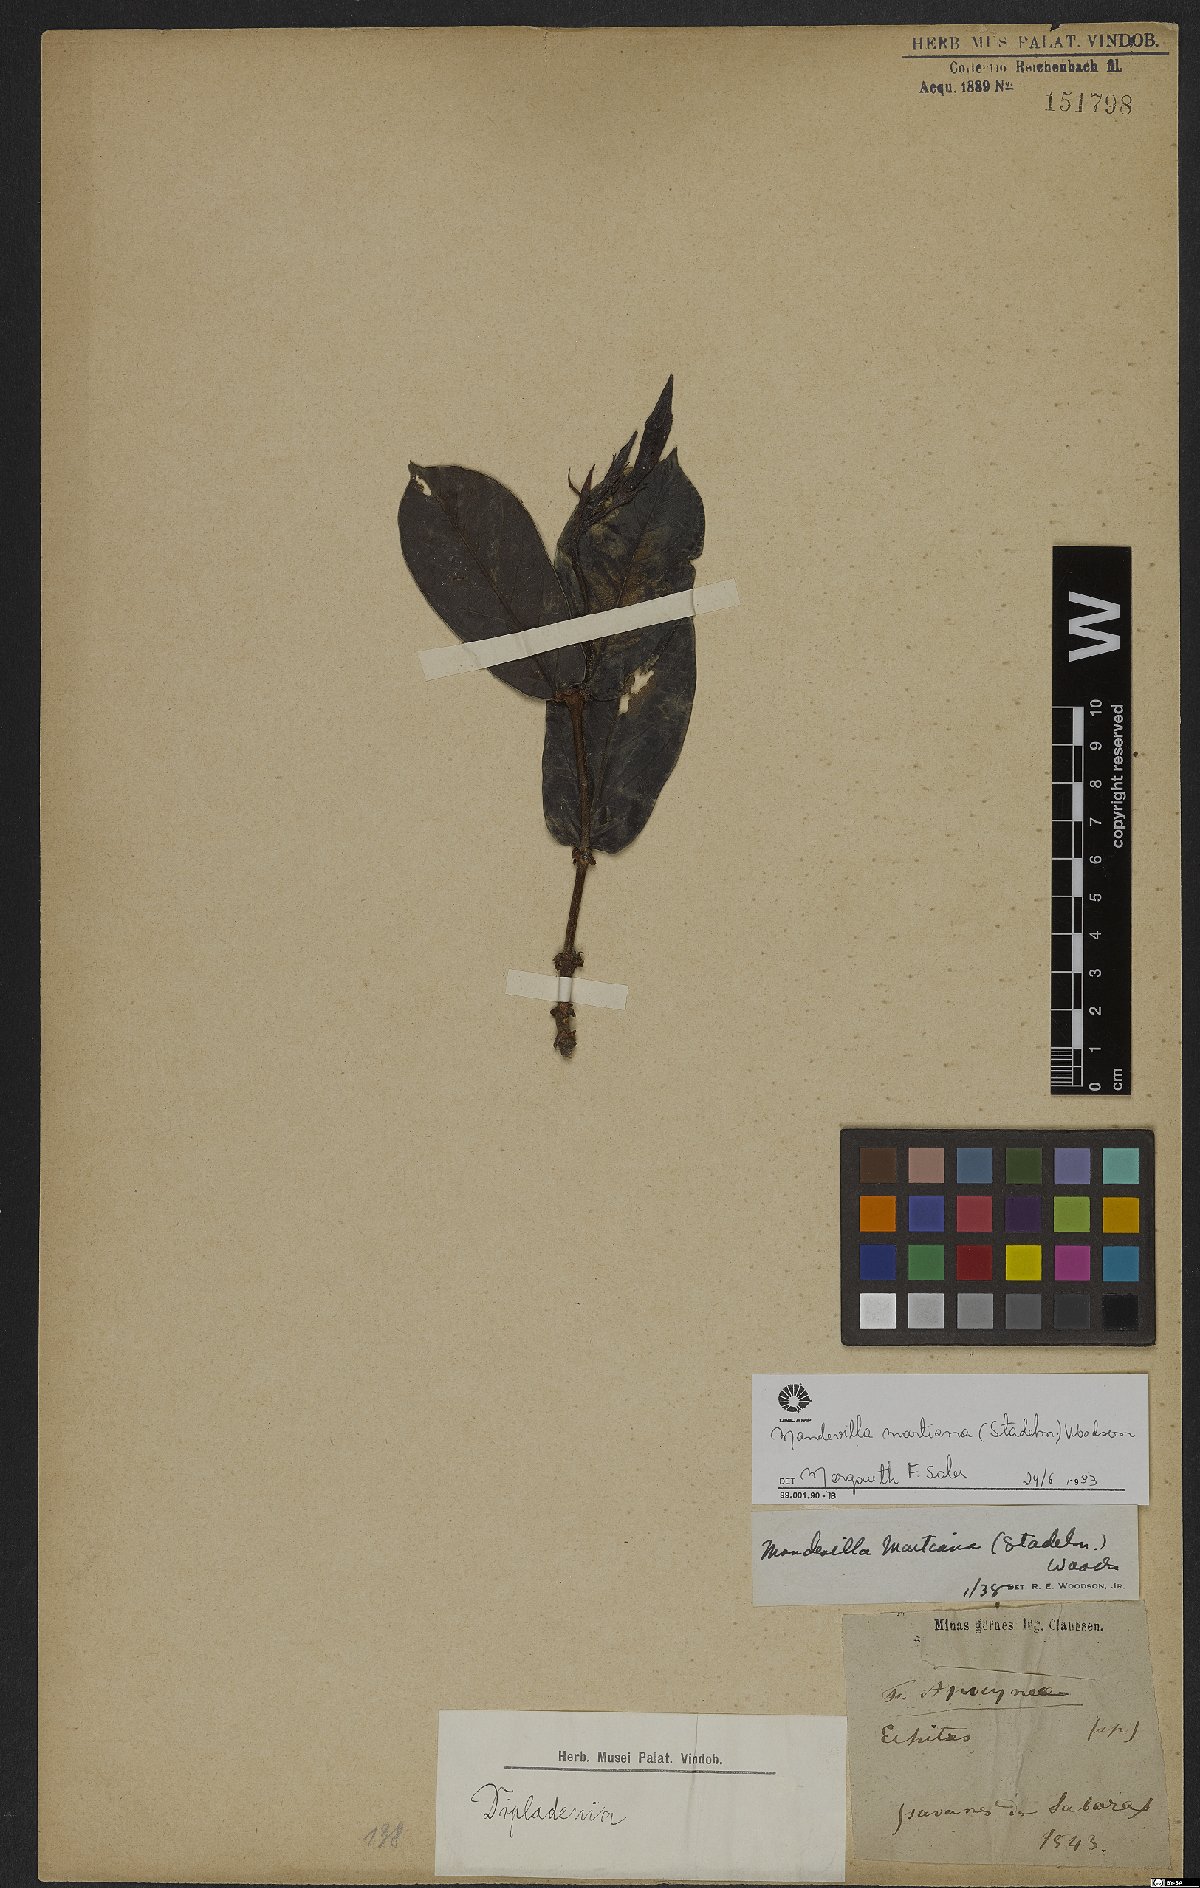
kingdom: Plantae
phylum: Tracheophyta
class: Magnoliopsida
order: Gentianales
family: Apocynaceae
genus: Mandevilla
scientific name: Mandevilla martiana
